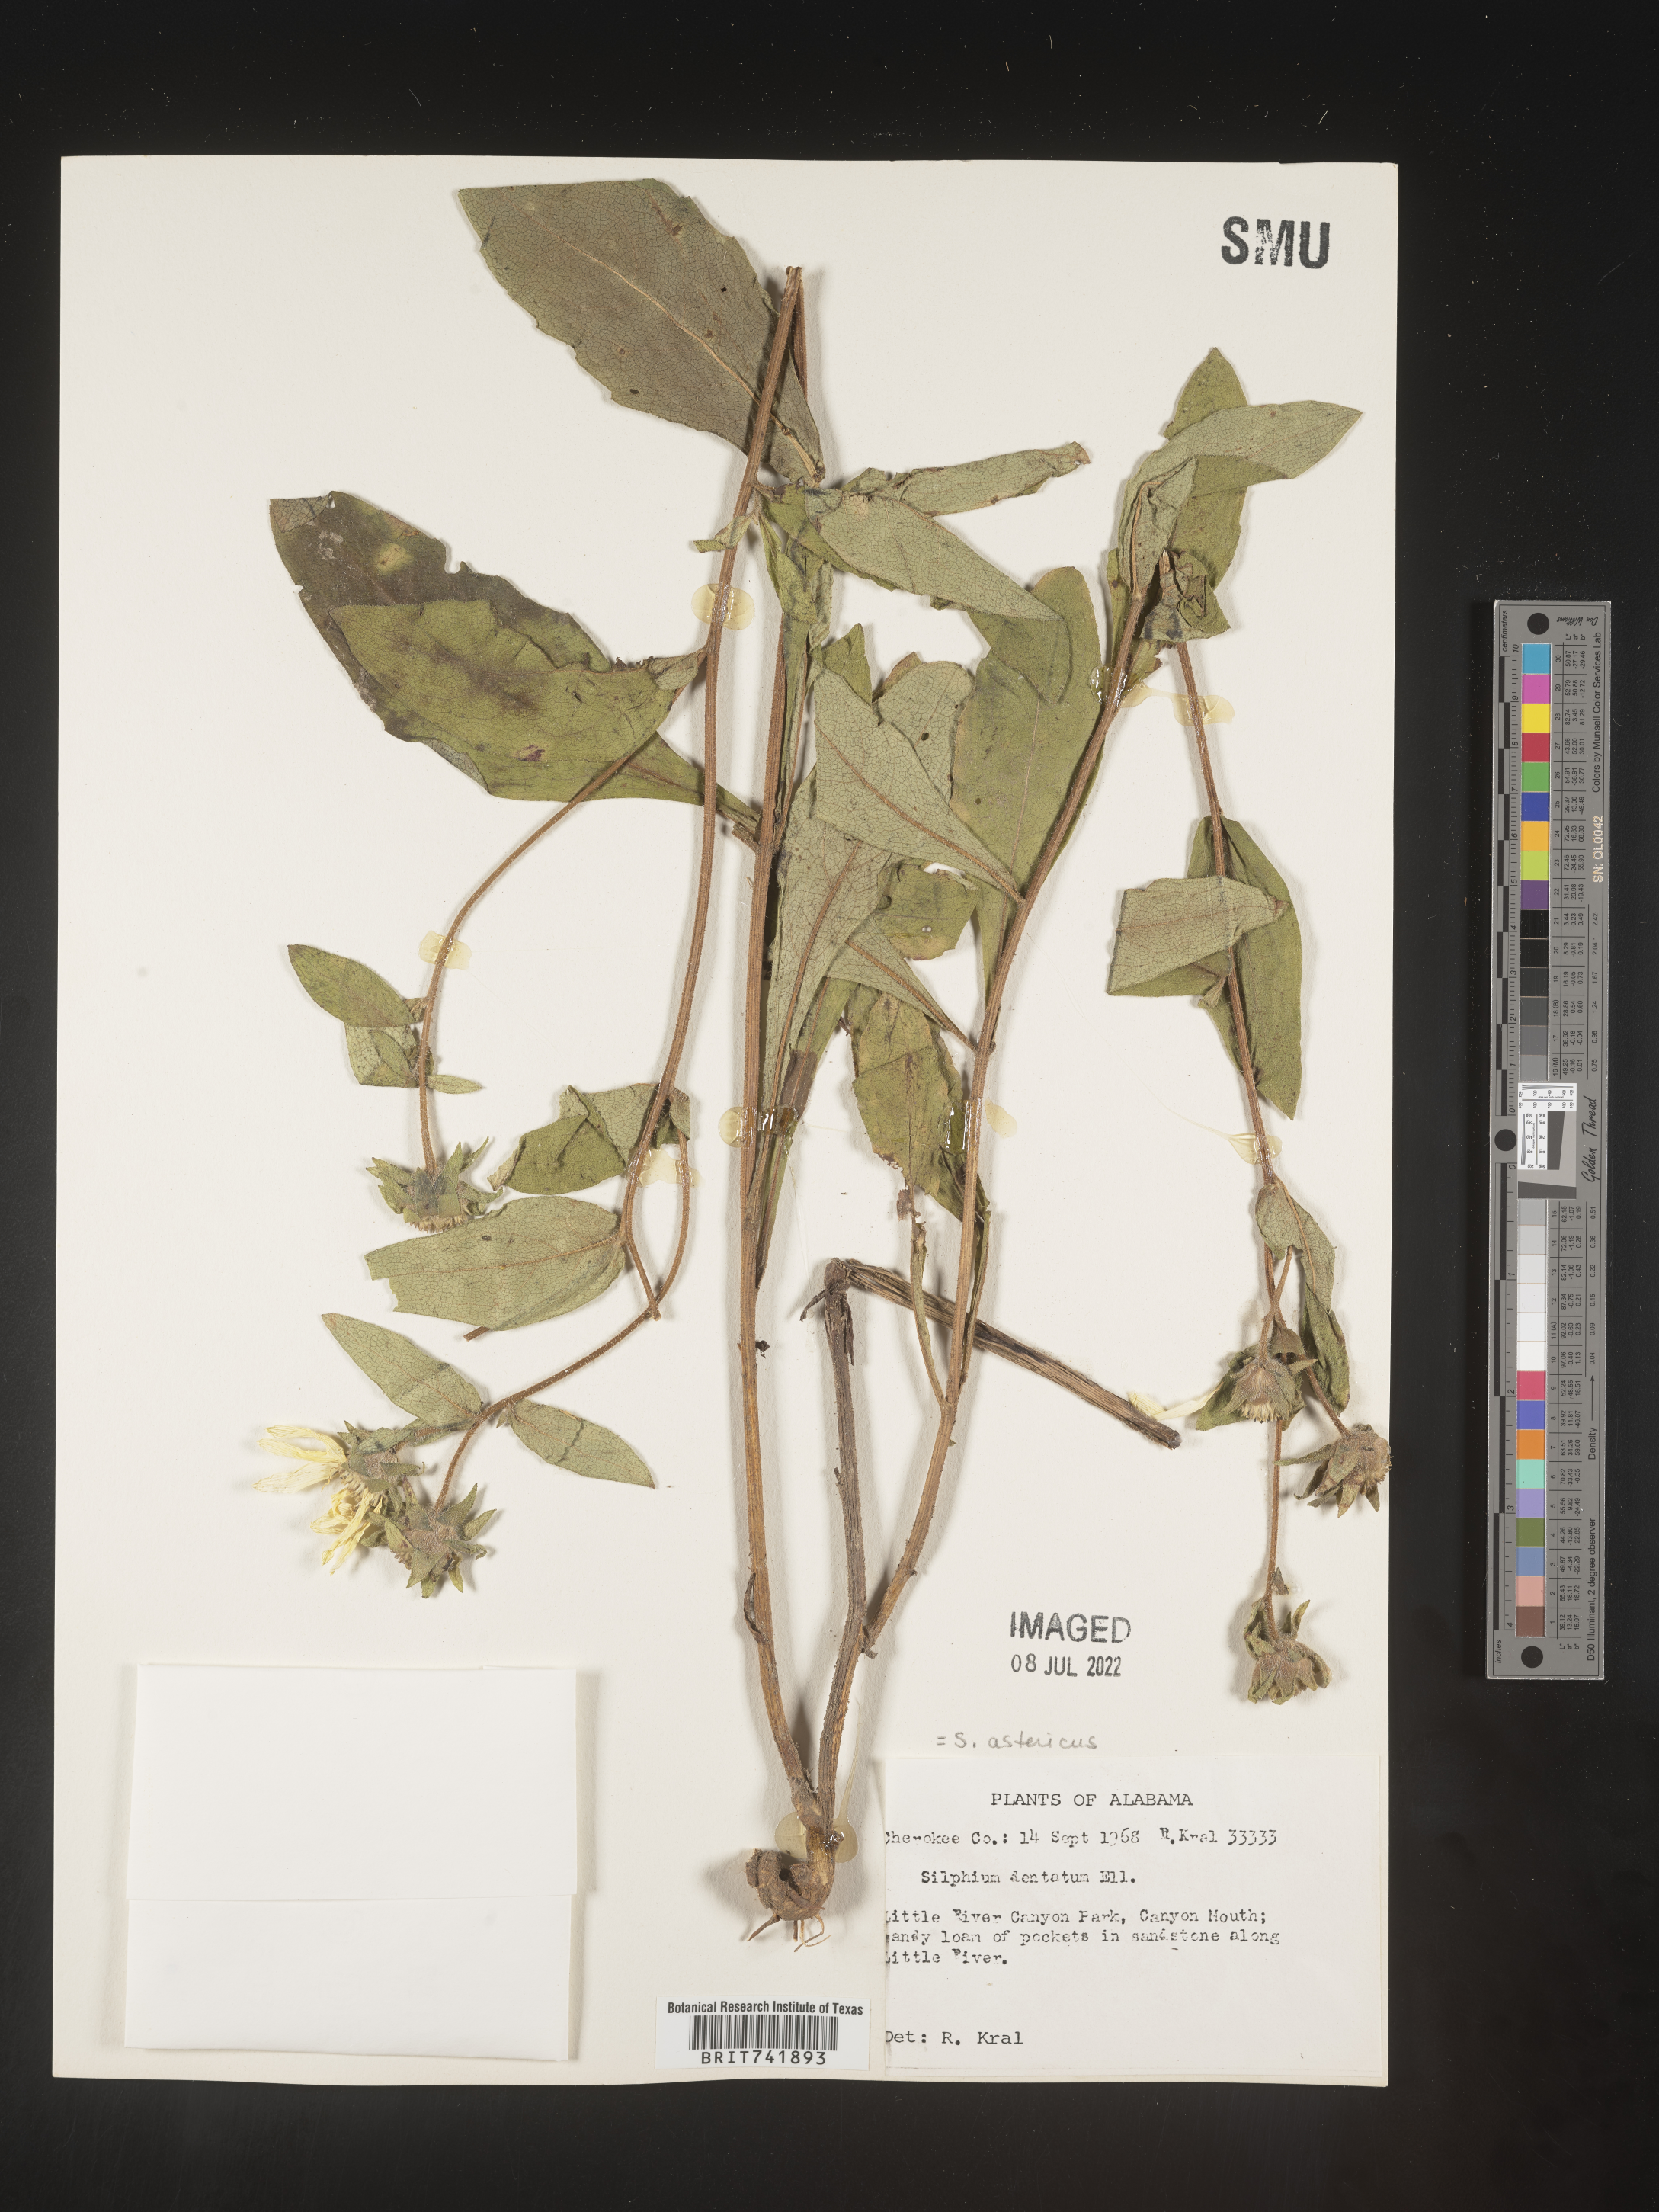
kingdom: Plantae
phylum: Tracheophyta
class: Magnoliopsida
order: Asterales
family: Asteraceae
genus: Silphium
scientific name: Silphium asperrimum
